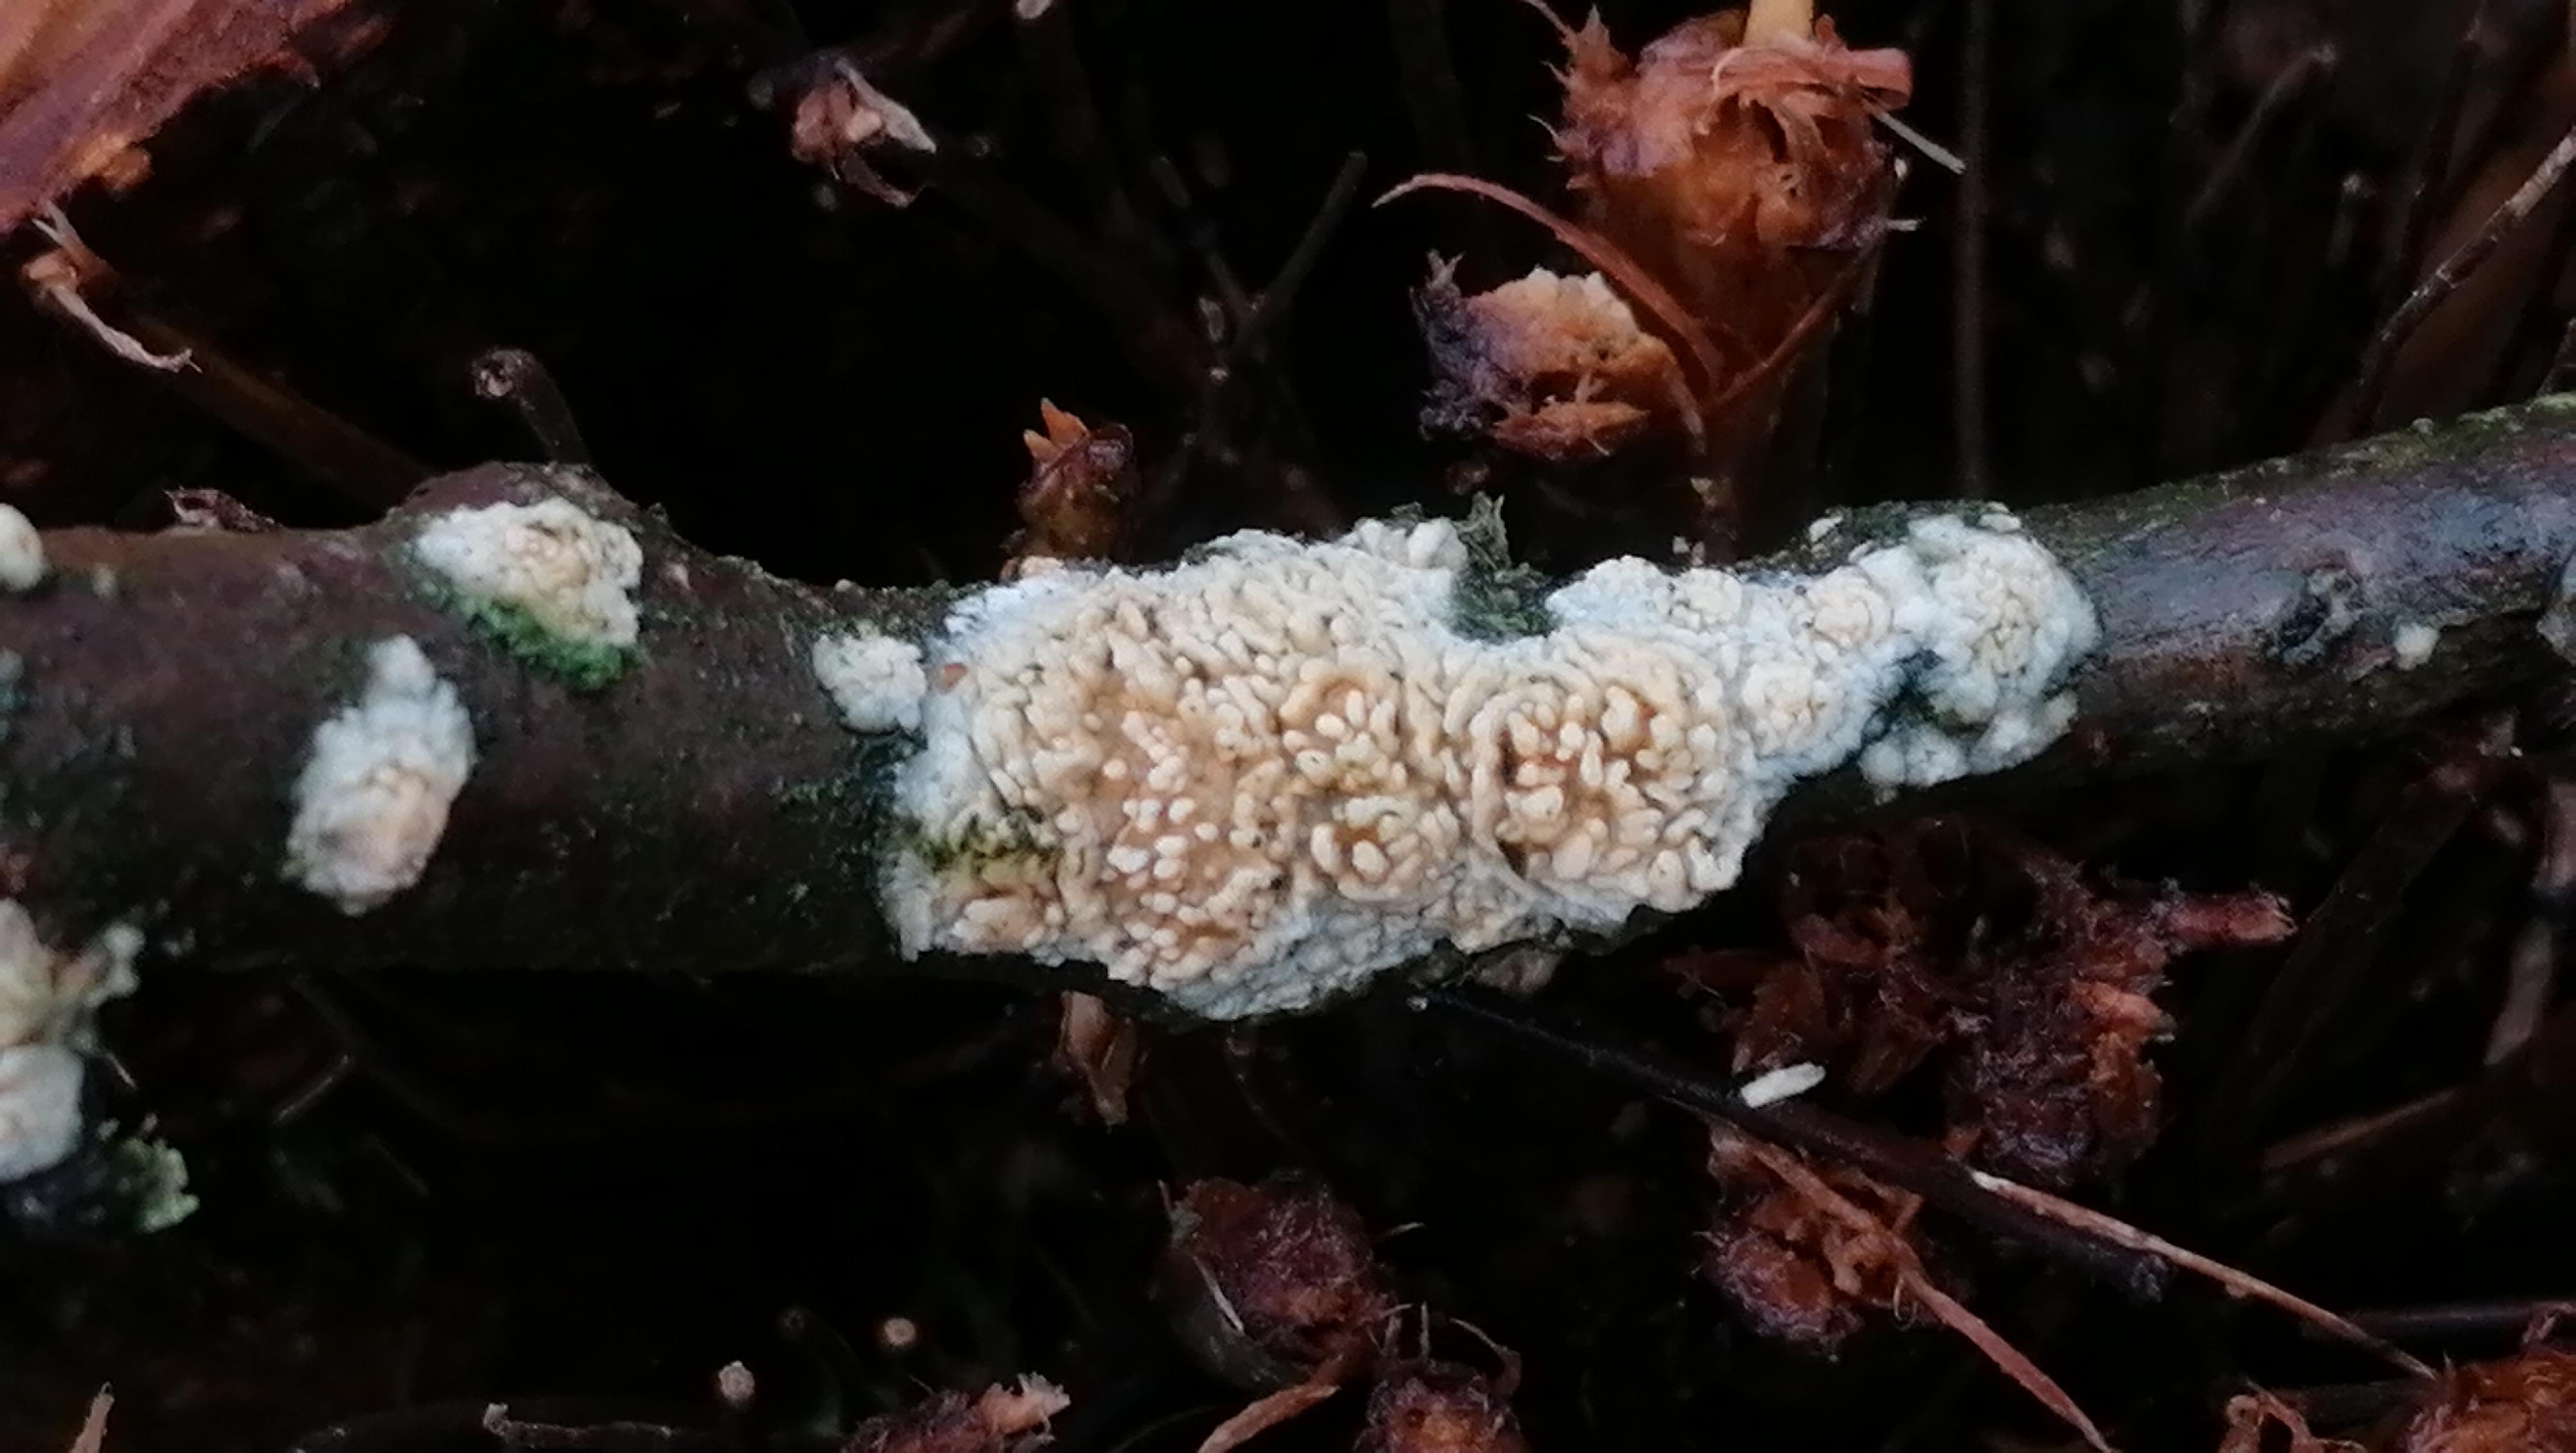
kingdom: Fungi
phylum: Basidiomycota
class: Agaricomycetes
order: Hymenochaetales
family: Schizoporaceae
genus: Xylodon
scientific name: Xylodon radula
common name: grovtandet kalkskind
